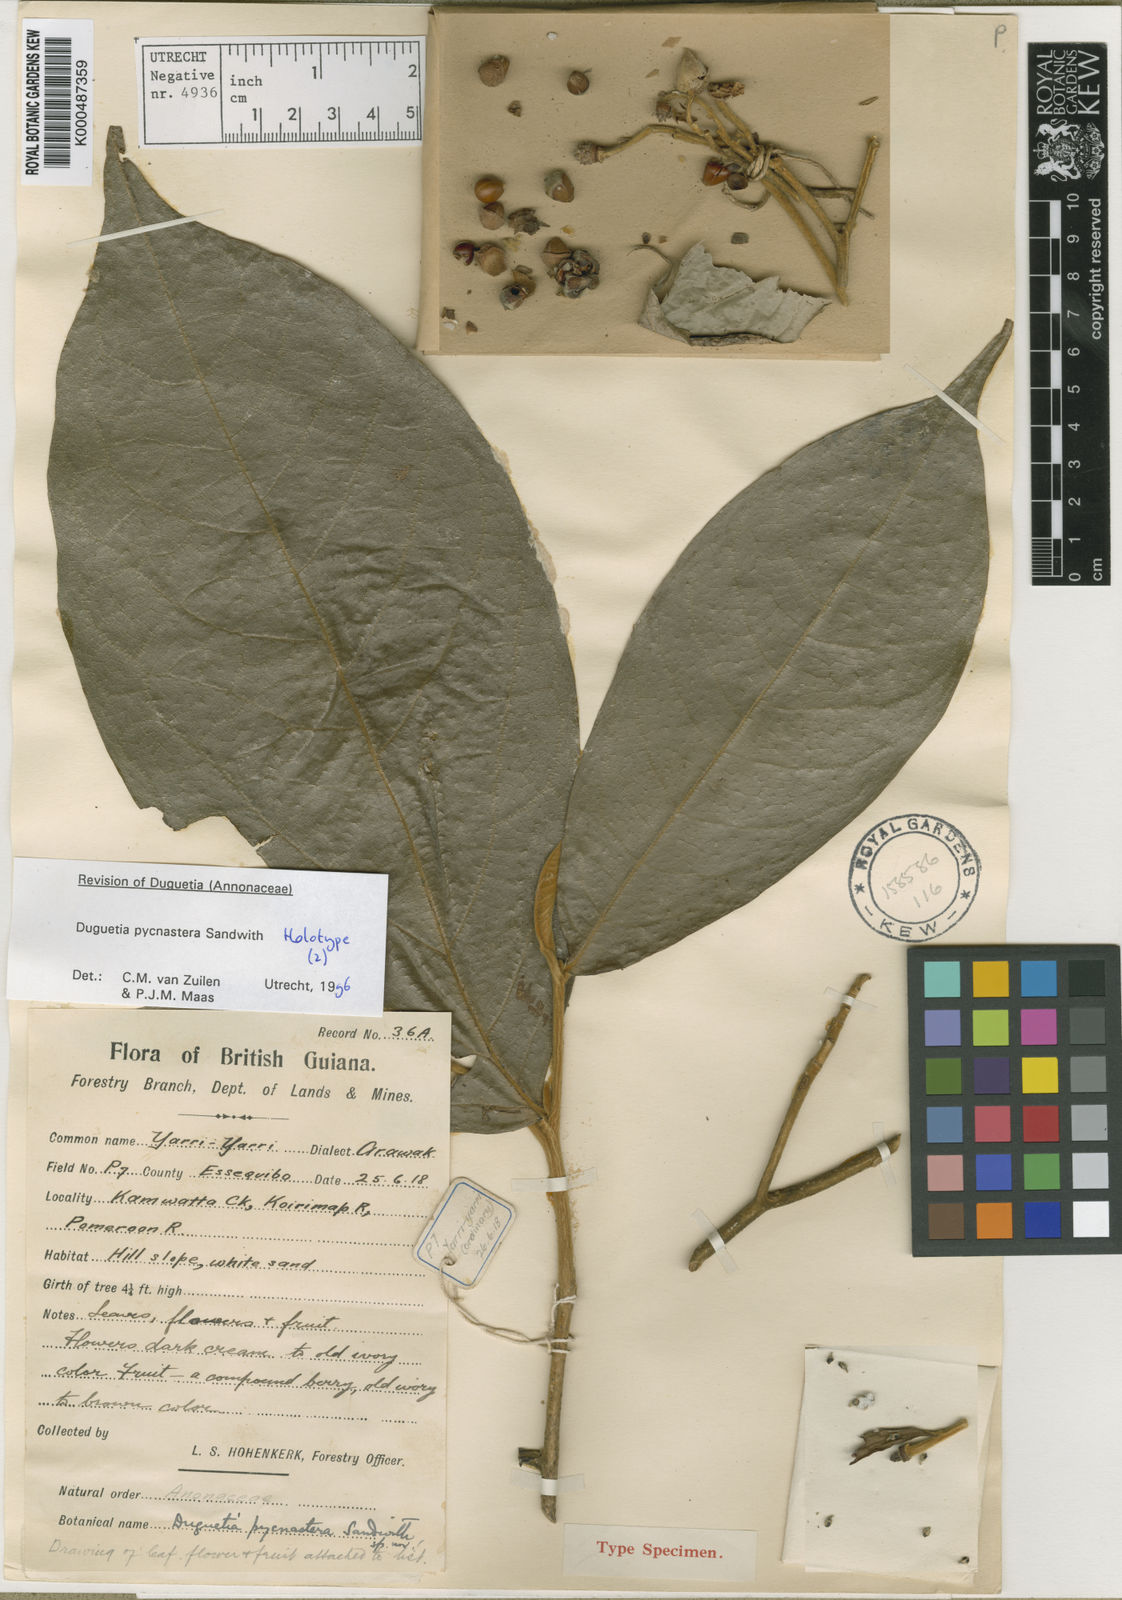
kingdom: Plantae
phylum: Tracheophyta
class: Magnoliopsida
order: Magnoliales
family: Annonaceae
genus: Duguetia
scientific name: Duguetia pycnastera
